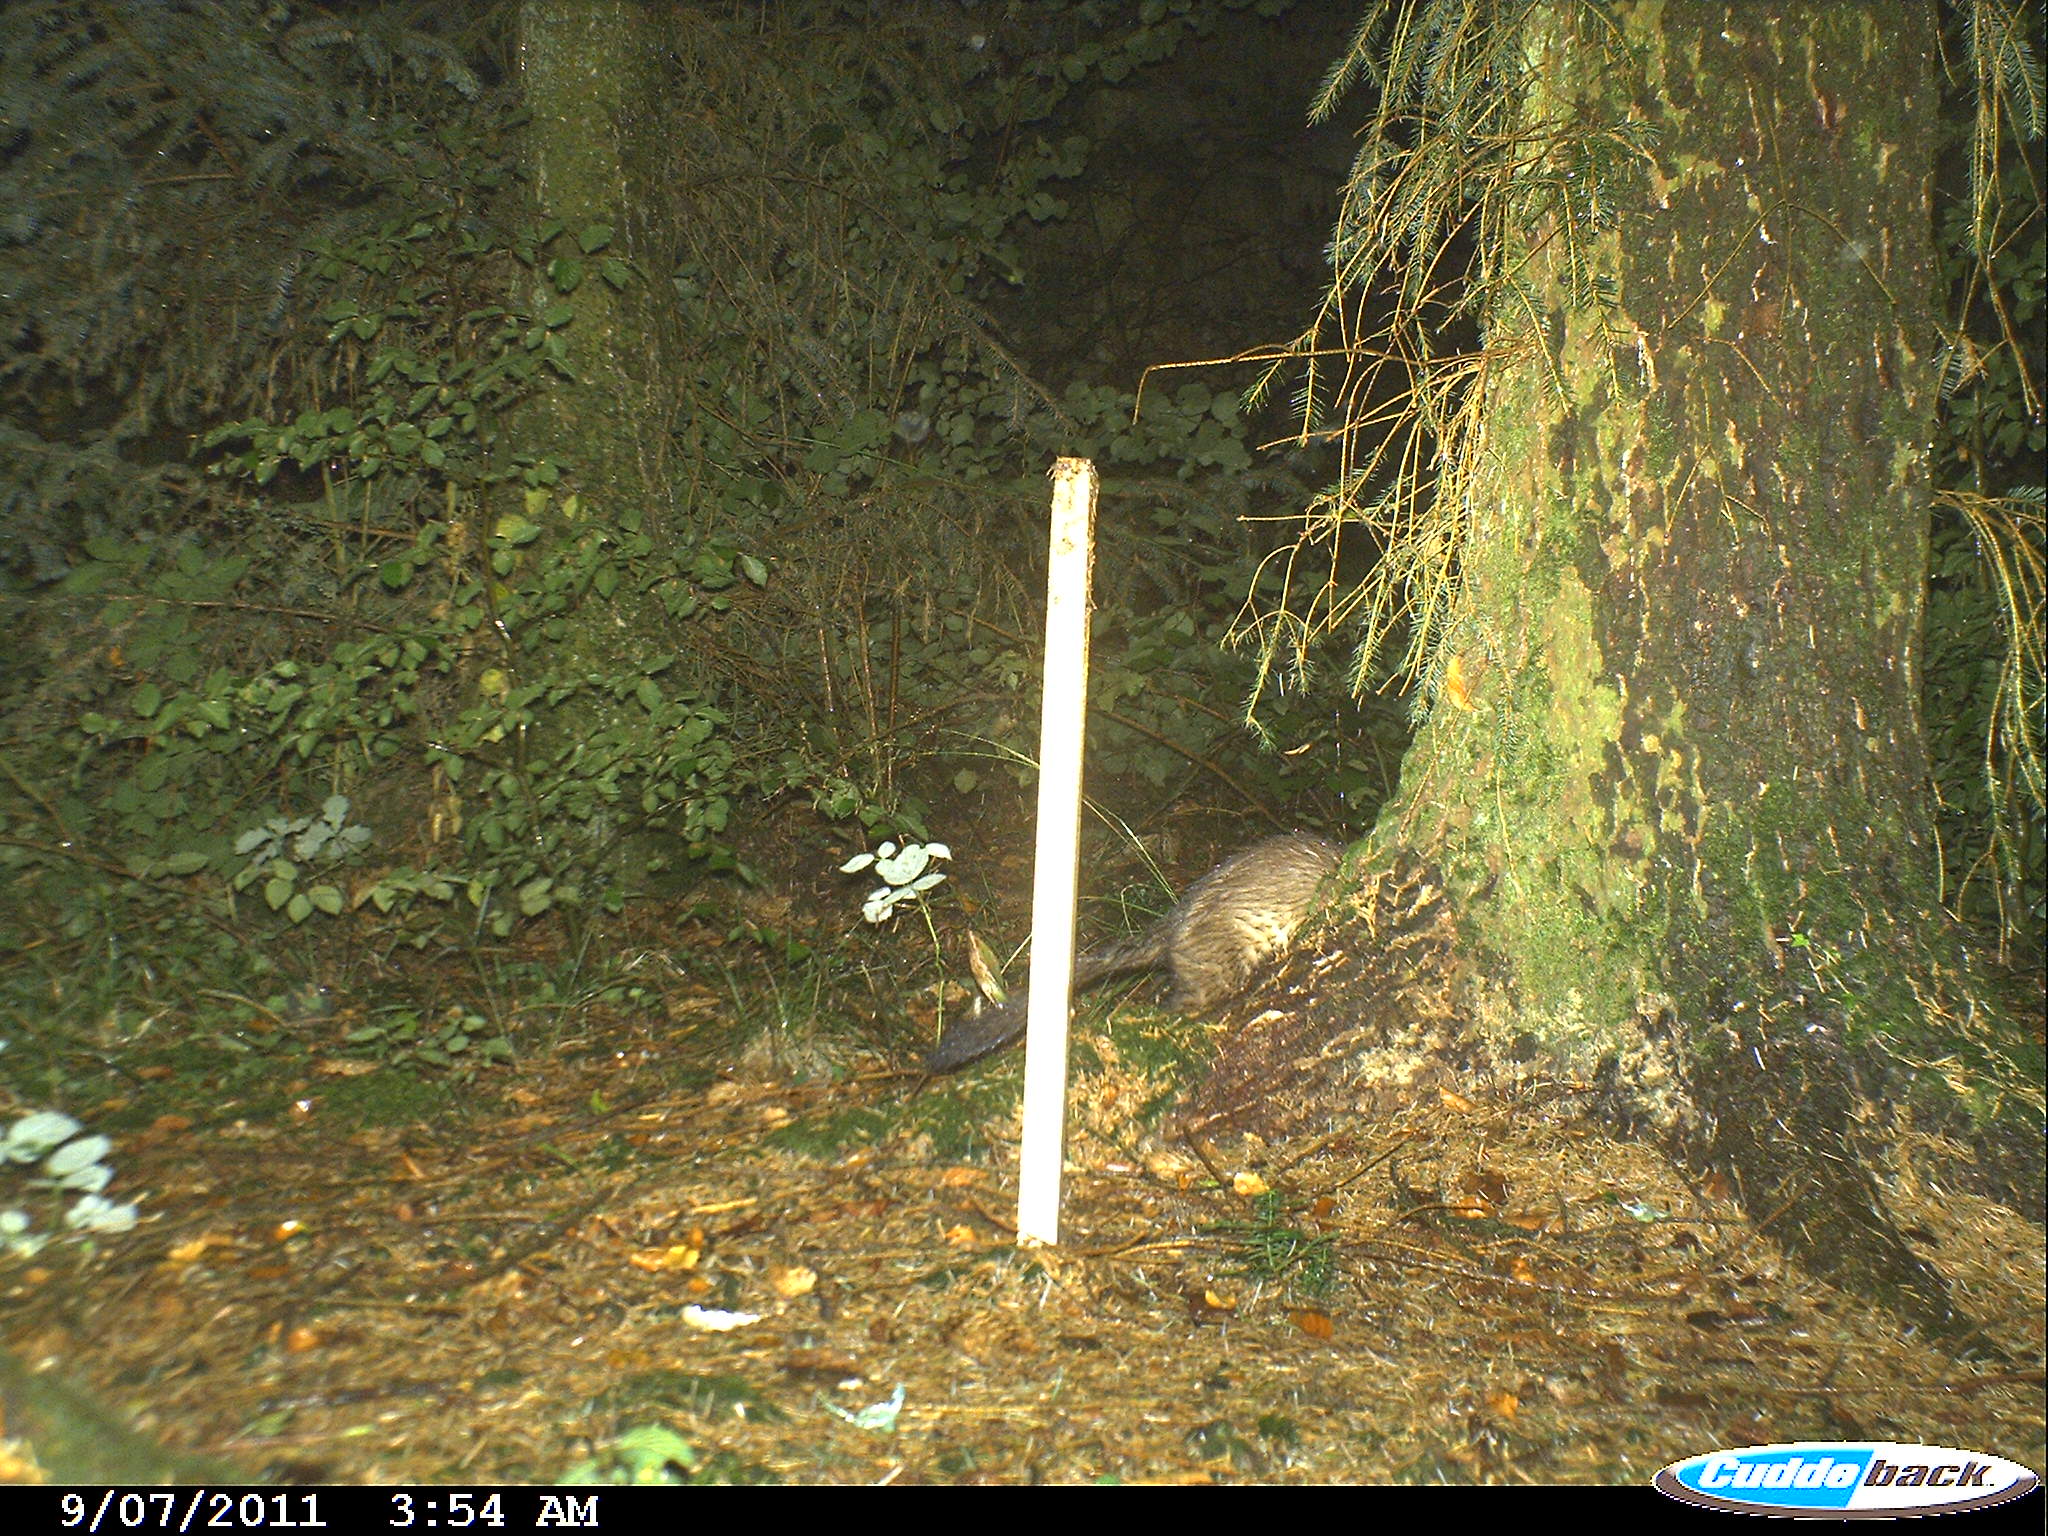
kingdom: Animalia
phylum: Chordata
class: Mammalia
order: Carnivora
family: Mustelidae
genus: Martes
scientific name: Martes
